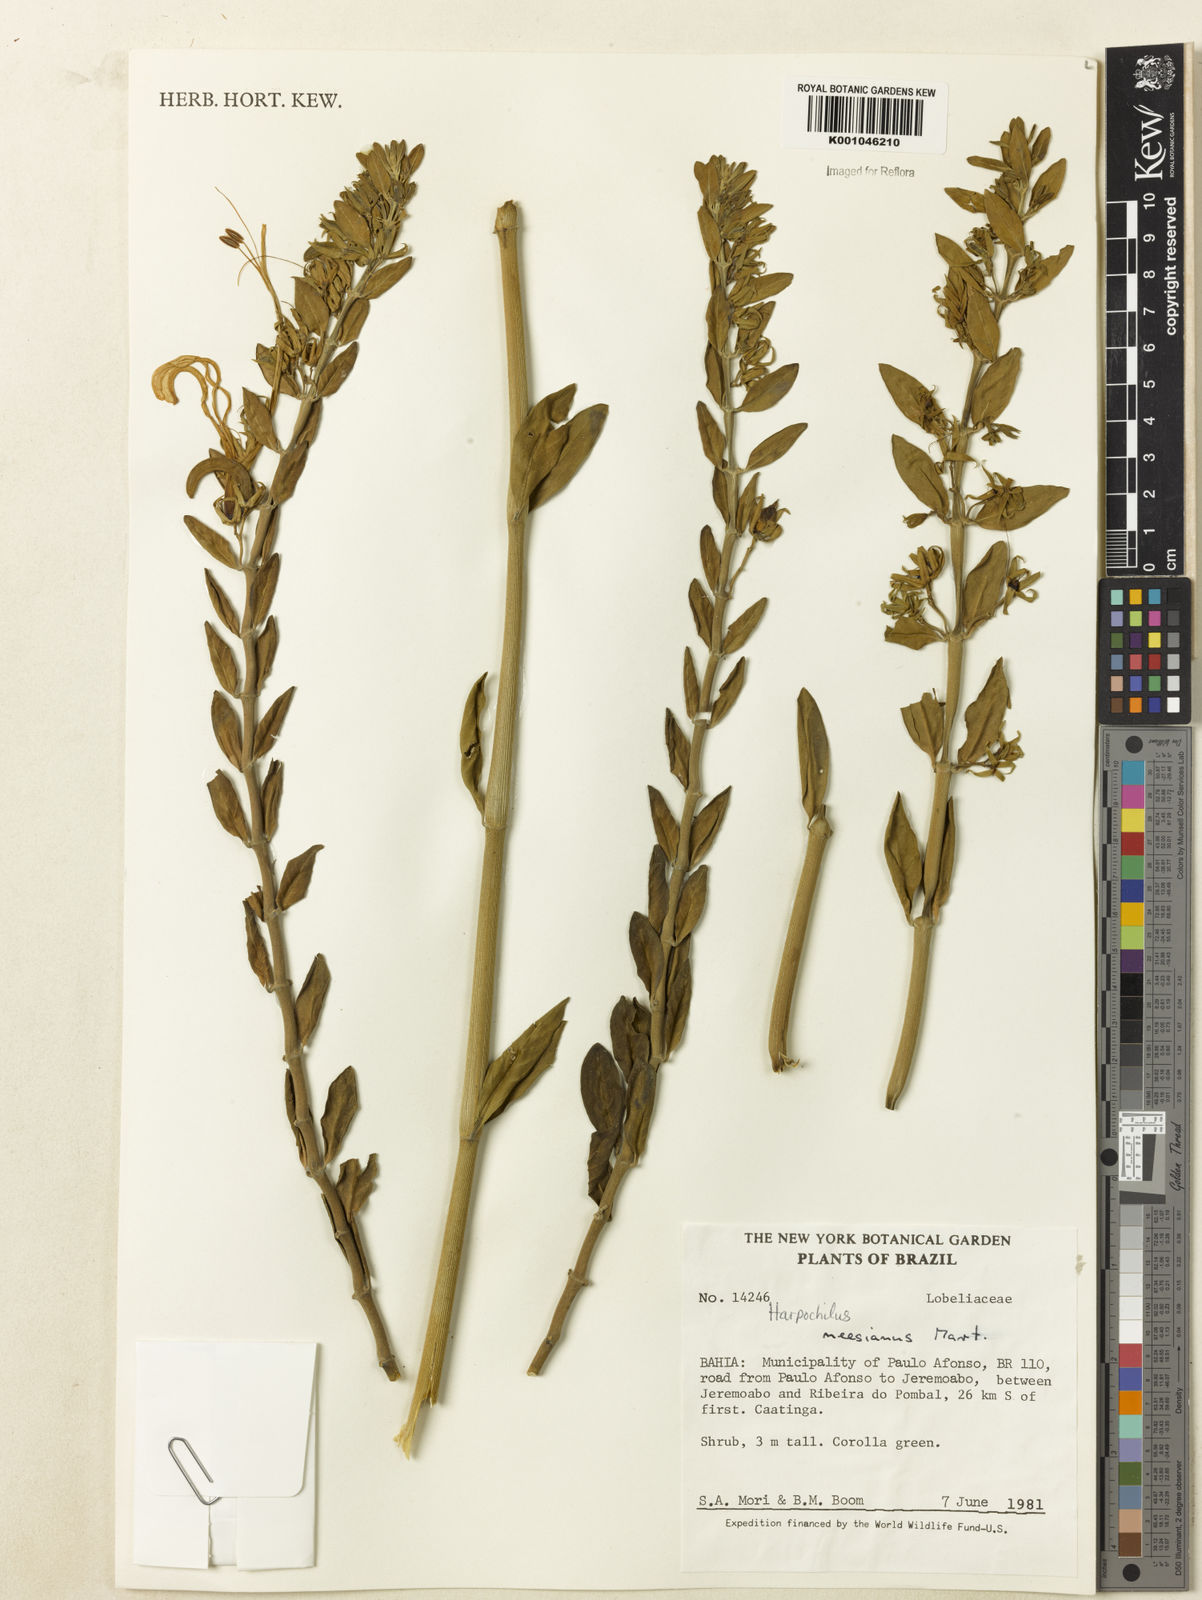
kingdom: Plantae
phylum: Tracheophyta
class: Magnoliopsida
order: Lamiales
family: Acanthaceae
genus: Harpochilus
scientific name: Harpochilus neesianus
